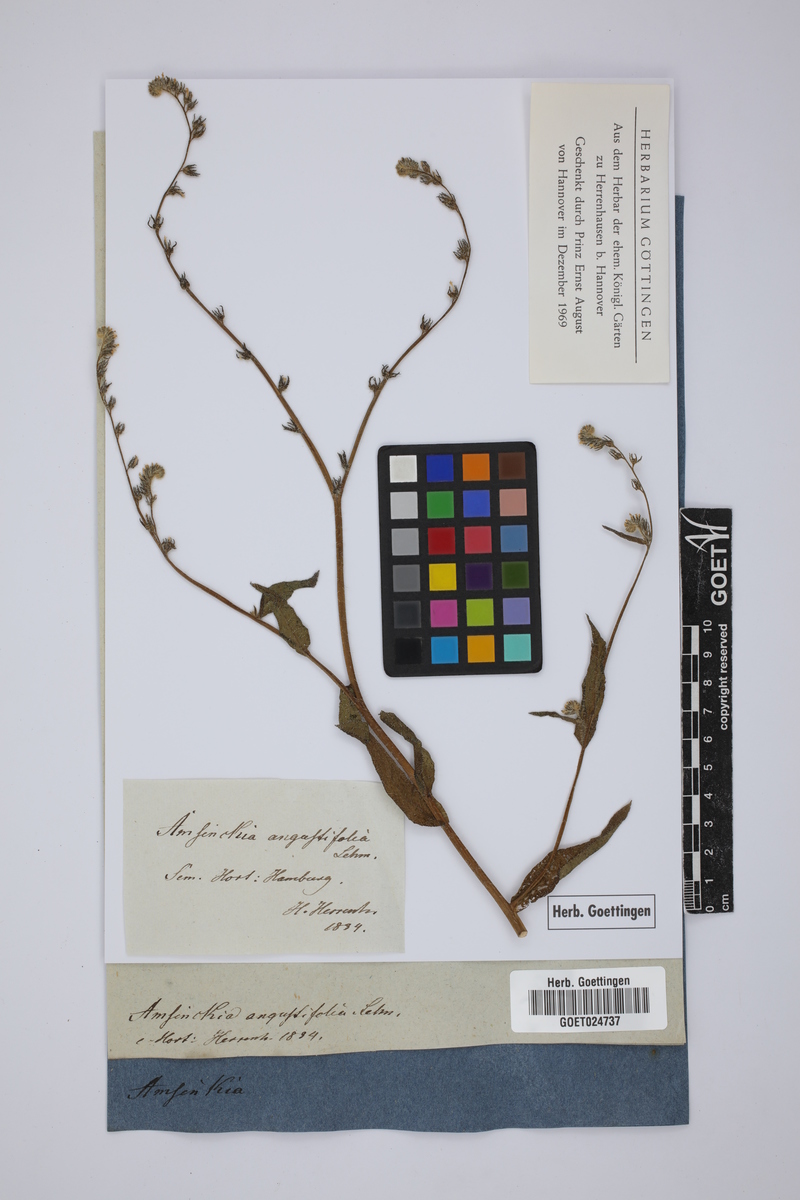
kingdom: Plantae
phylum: Tracheophyta
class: Magnoliopsida
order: Boraginales
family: Boraginaceae
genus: Amsinckia
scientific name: Amsinckia calycina
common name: Hairy fiddleneck
